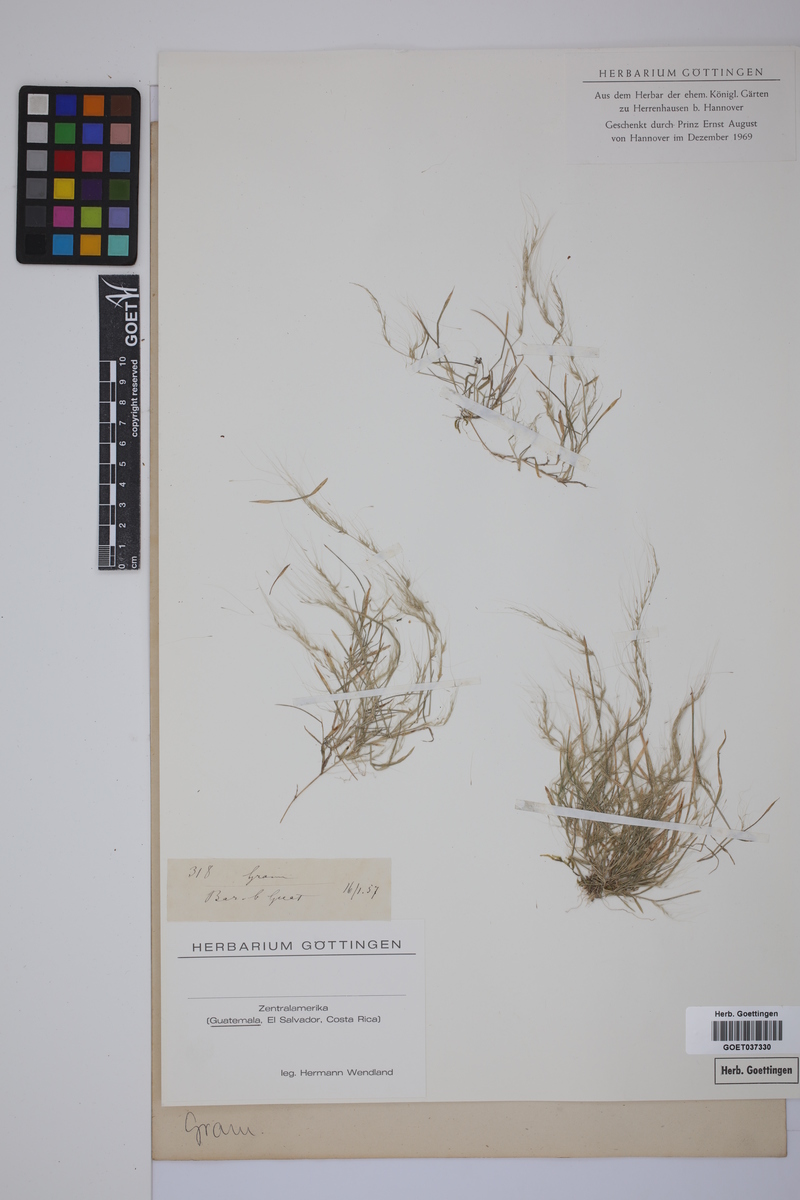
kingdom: Plantae
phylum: Tracheophyta
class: Liliopsida
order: Poales
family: Poaceae
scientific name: Poaceae
